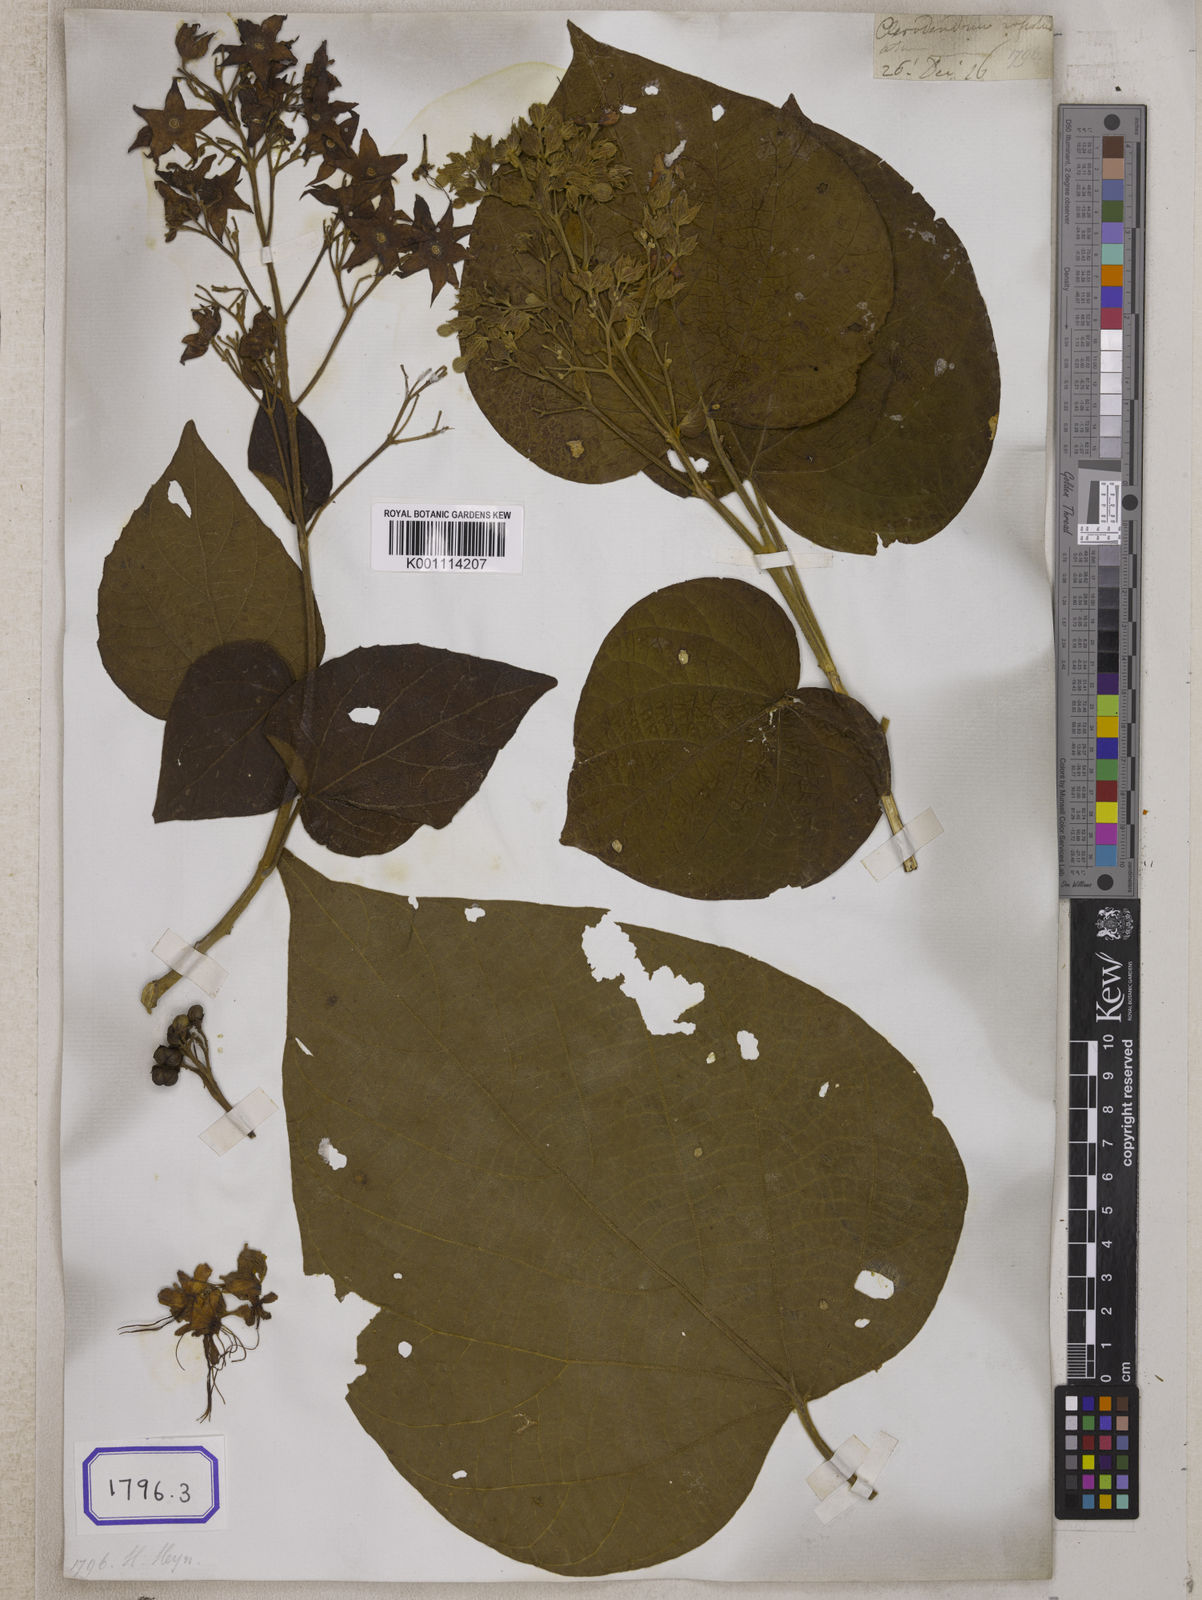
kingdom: Plantae
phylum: Tracheophyta
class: Magnoliopsida
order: Lamiales
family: Lamiaceae
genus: Clerodendrum
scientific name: Clerodendrum infortunatum
